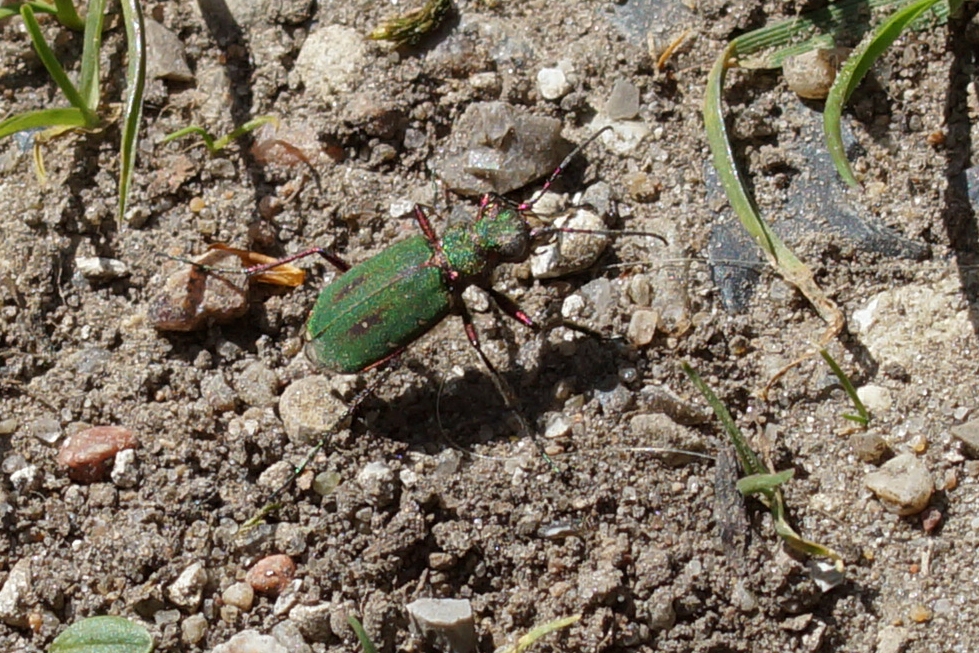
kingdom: Animalia
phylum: Arthropoda
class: Insecta
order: Coleoptera
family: Carabidae
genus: Cicindela
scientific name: Cicindela campestris
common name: Grøn sandspringer
